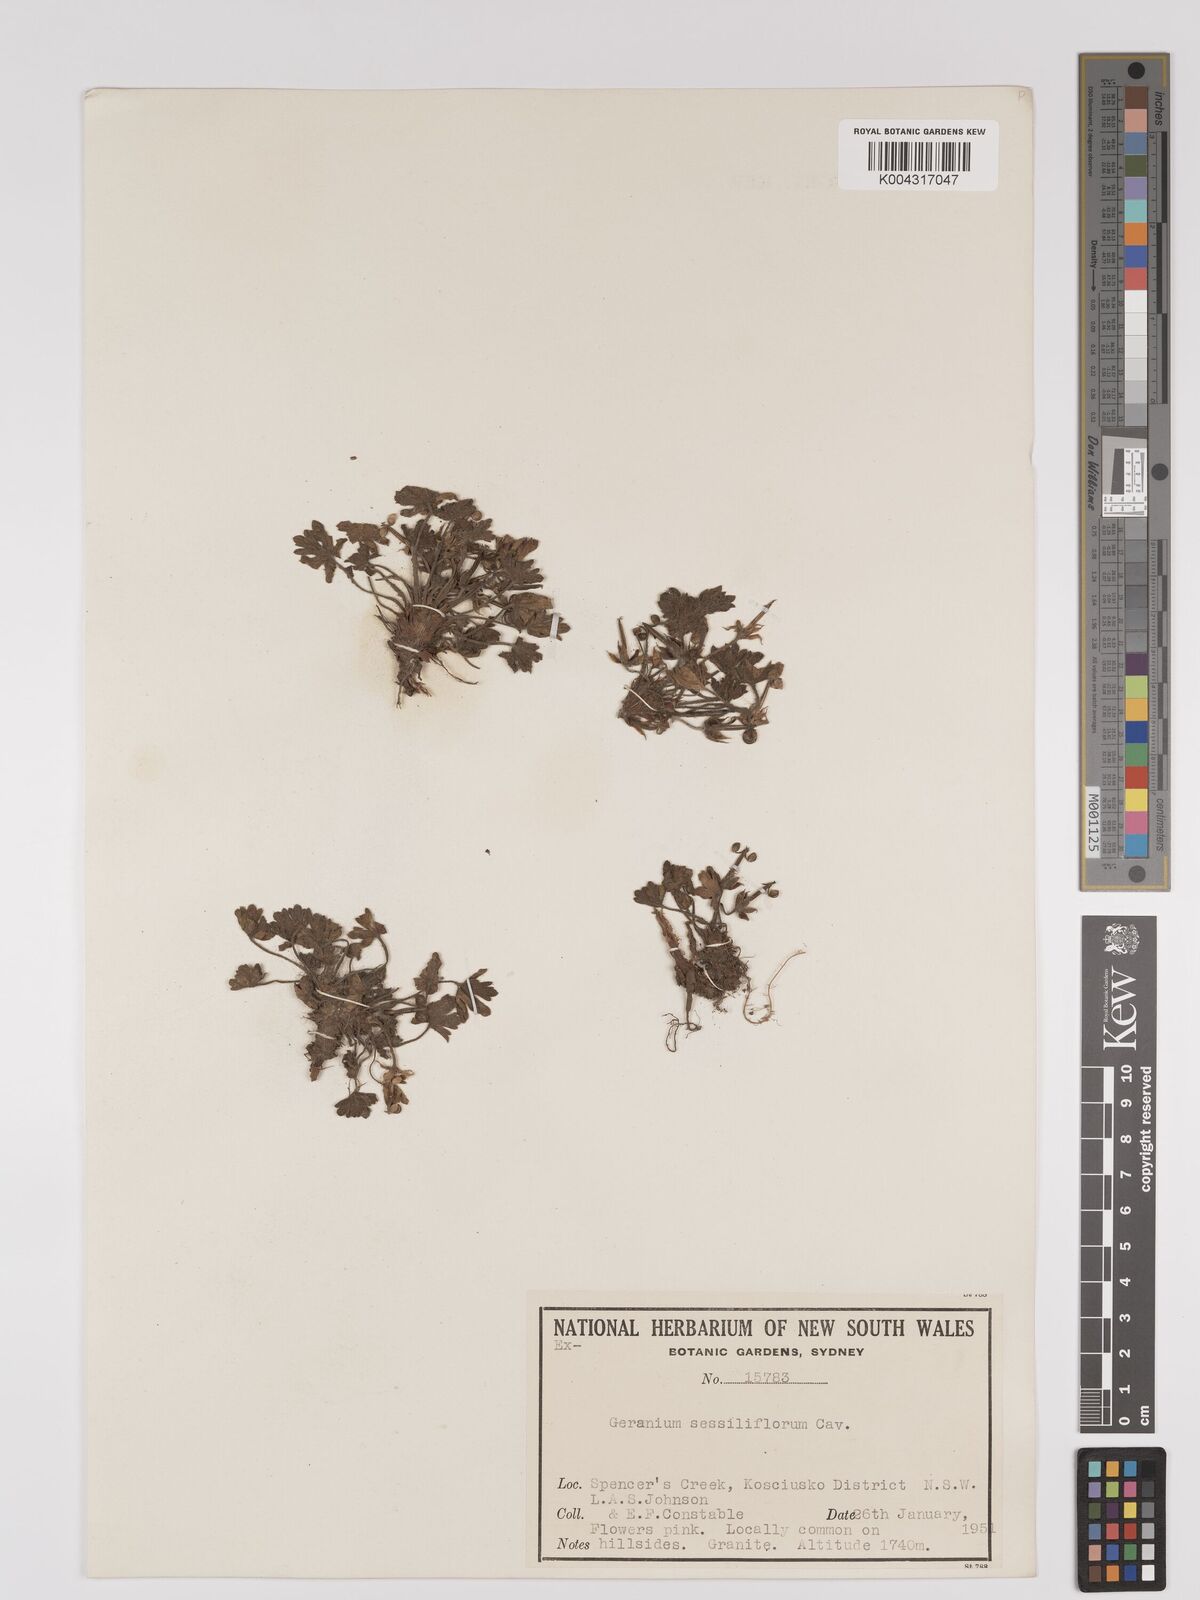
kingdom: Plantae
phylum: Tracheophyta
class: Magnoliopsida
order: Geraniales
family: Geraniaceae
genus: Geranium
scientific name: Geranium sessiliflorum
